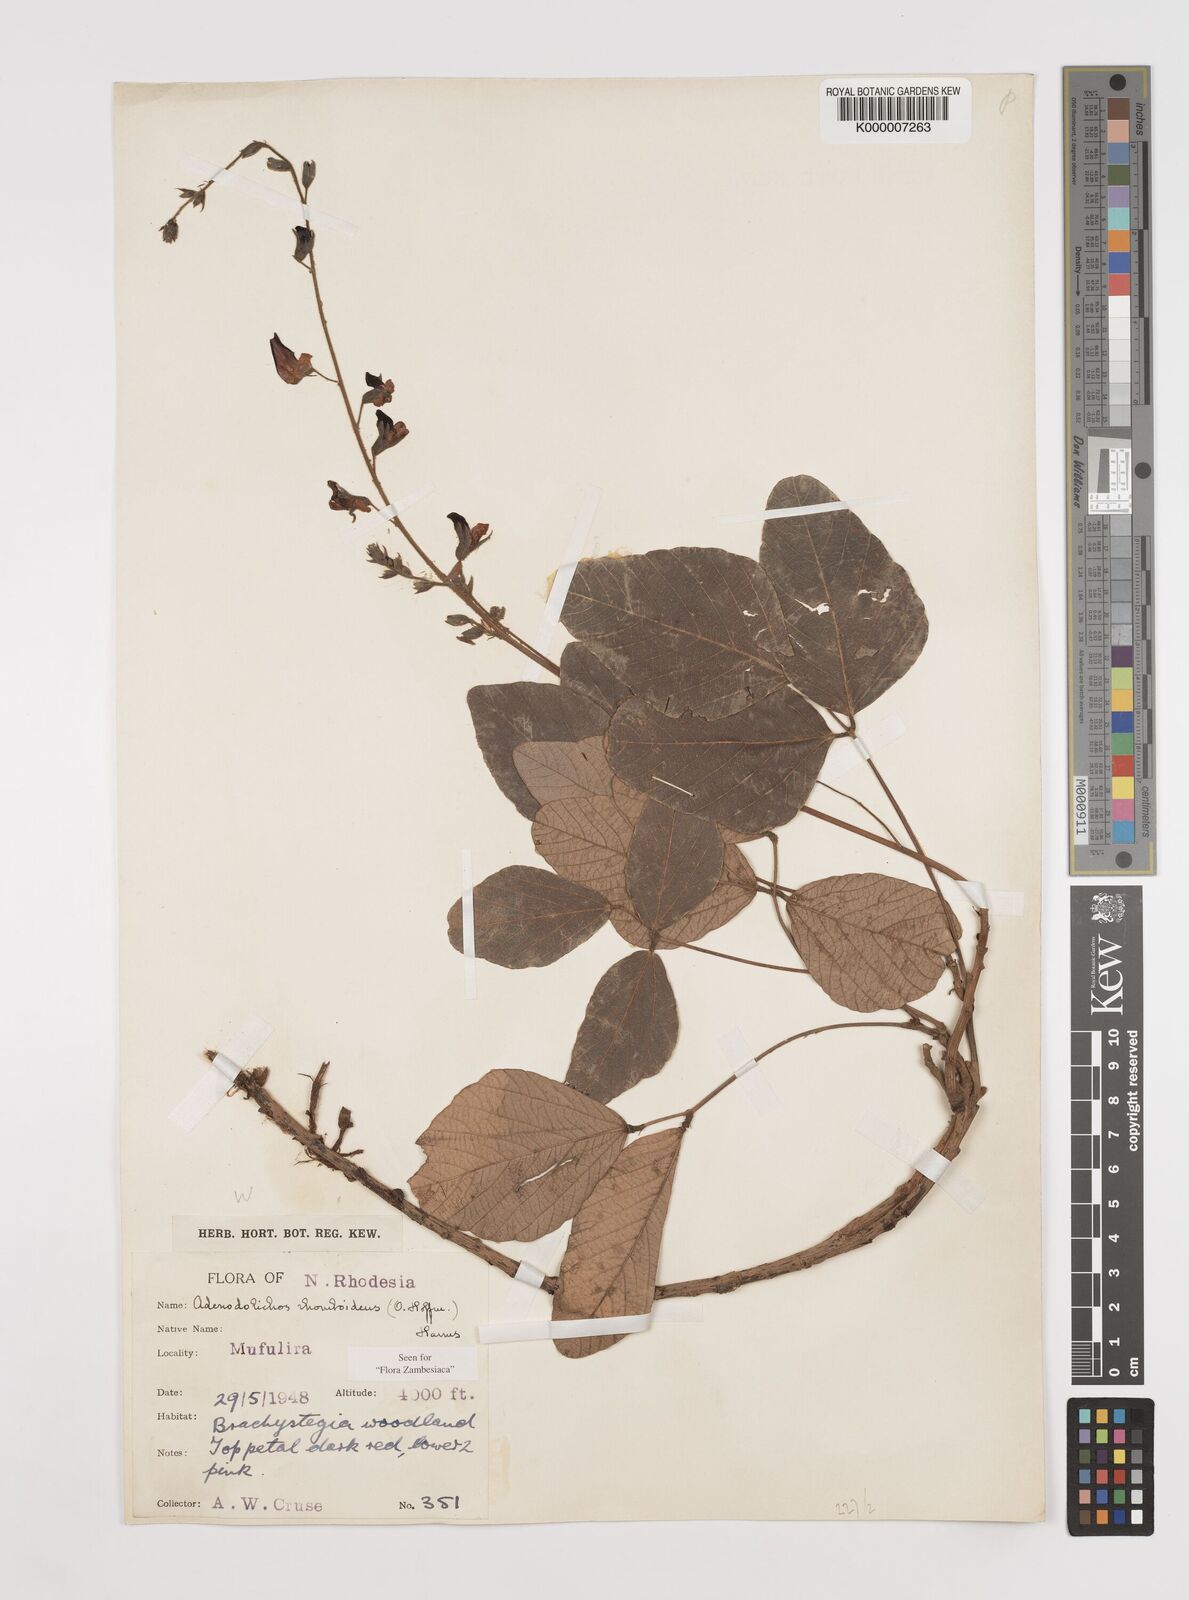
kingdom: Plantae
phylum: Tracheophyta
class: Magnoliopsida
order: Fabales
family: Fabaceae
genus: Adenodolichos
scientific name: Adenodolichos rhomboideus
